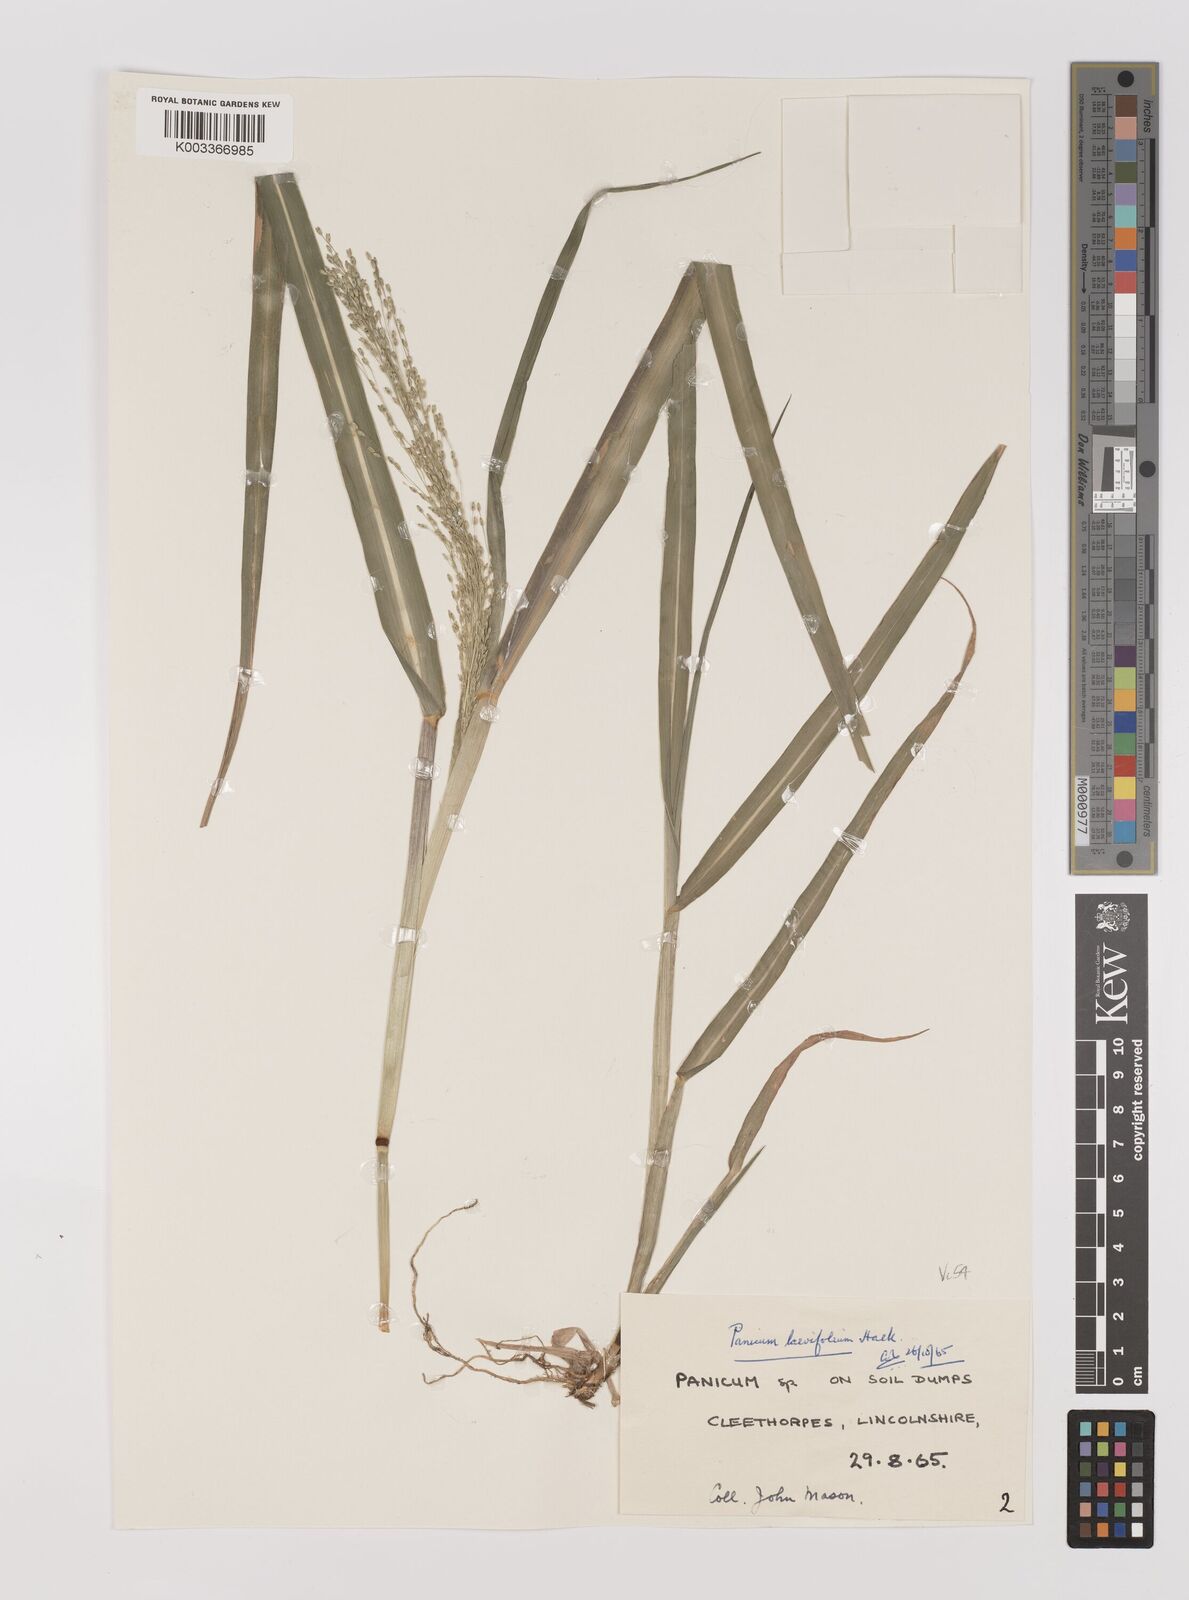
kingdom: Plantae
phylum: Tracheophyta
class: Liliopsida
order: Poales
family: Poaceae
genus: Panicum
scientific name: Panicum schinzii
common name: Sweet grass
